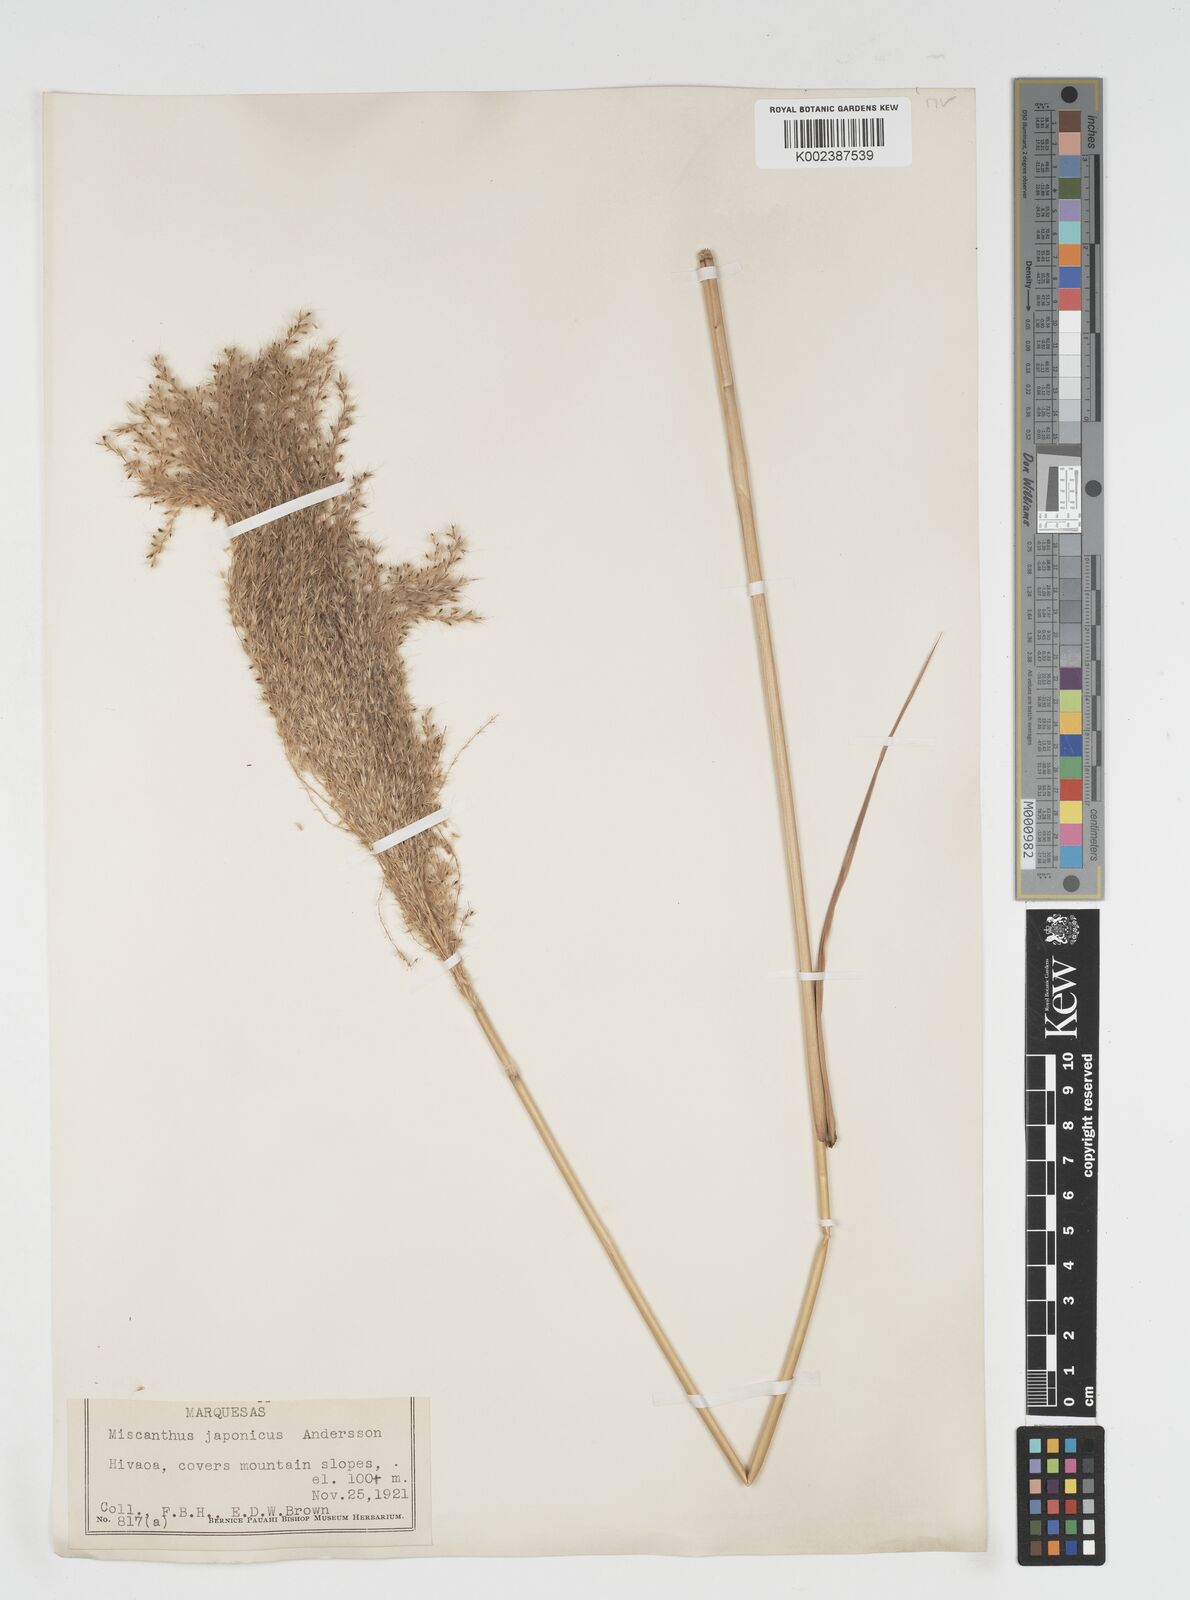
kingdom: Plantae
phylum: Tracheophyta
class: Liliopsida
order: Poales
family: Poaceae
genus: Miscanthus
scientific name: Miscanthus
